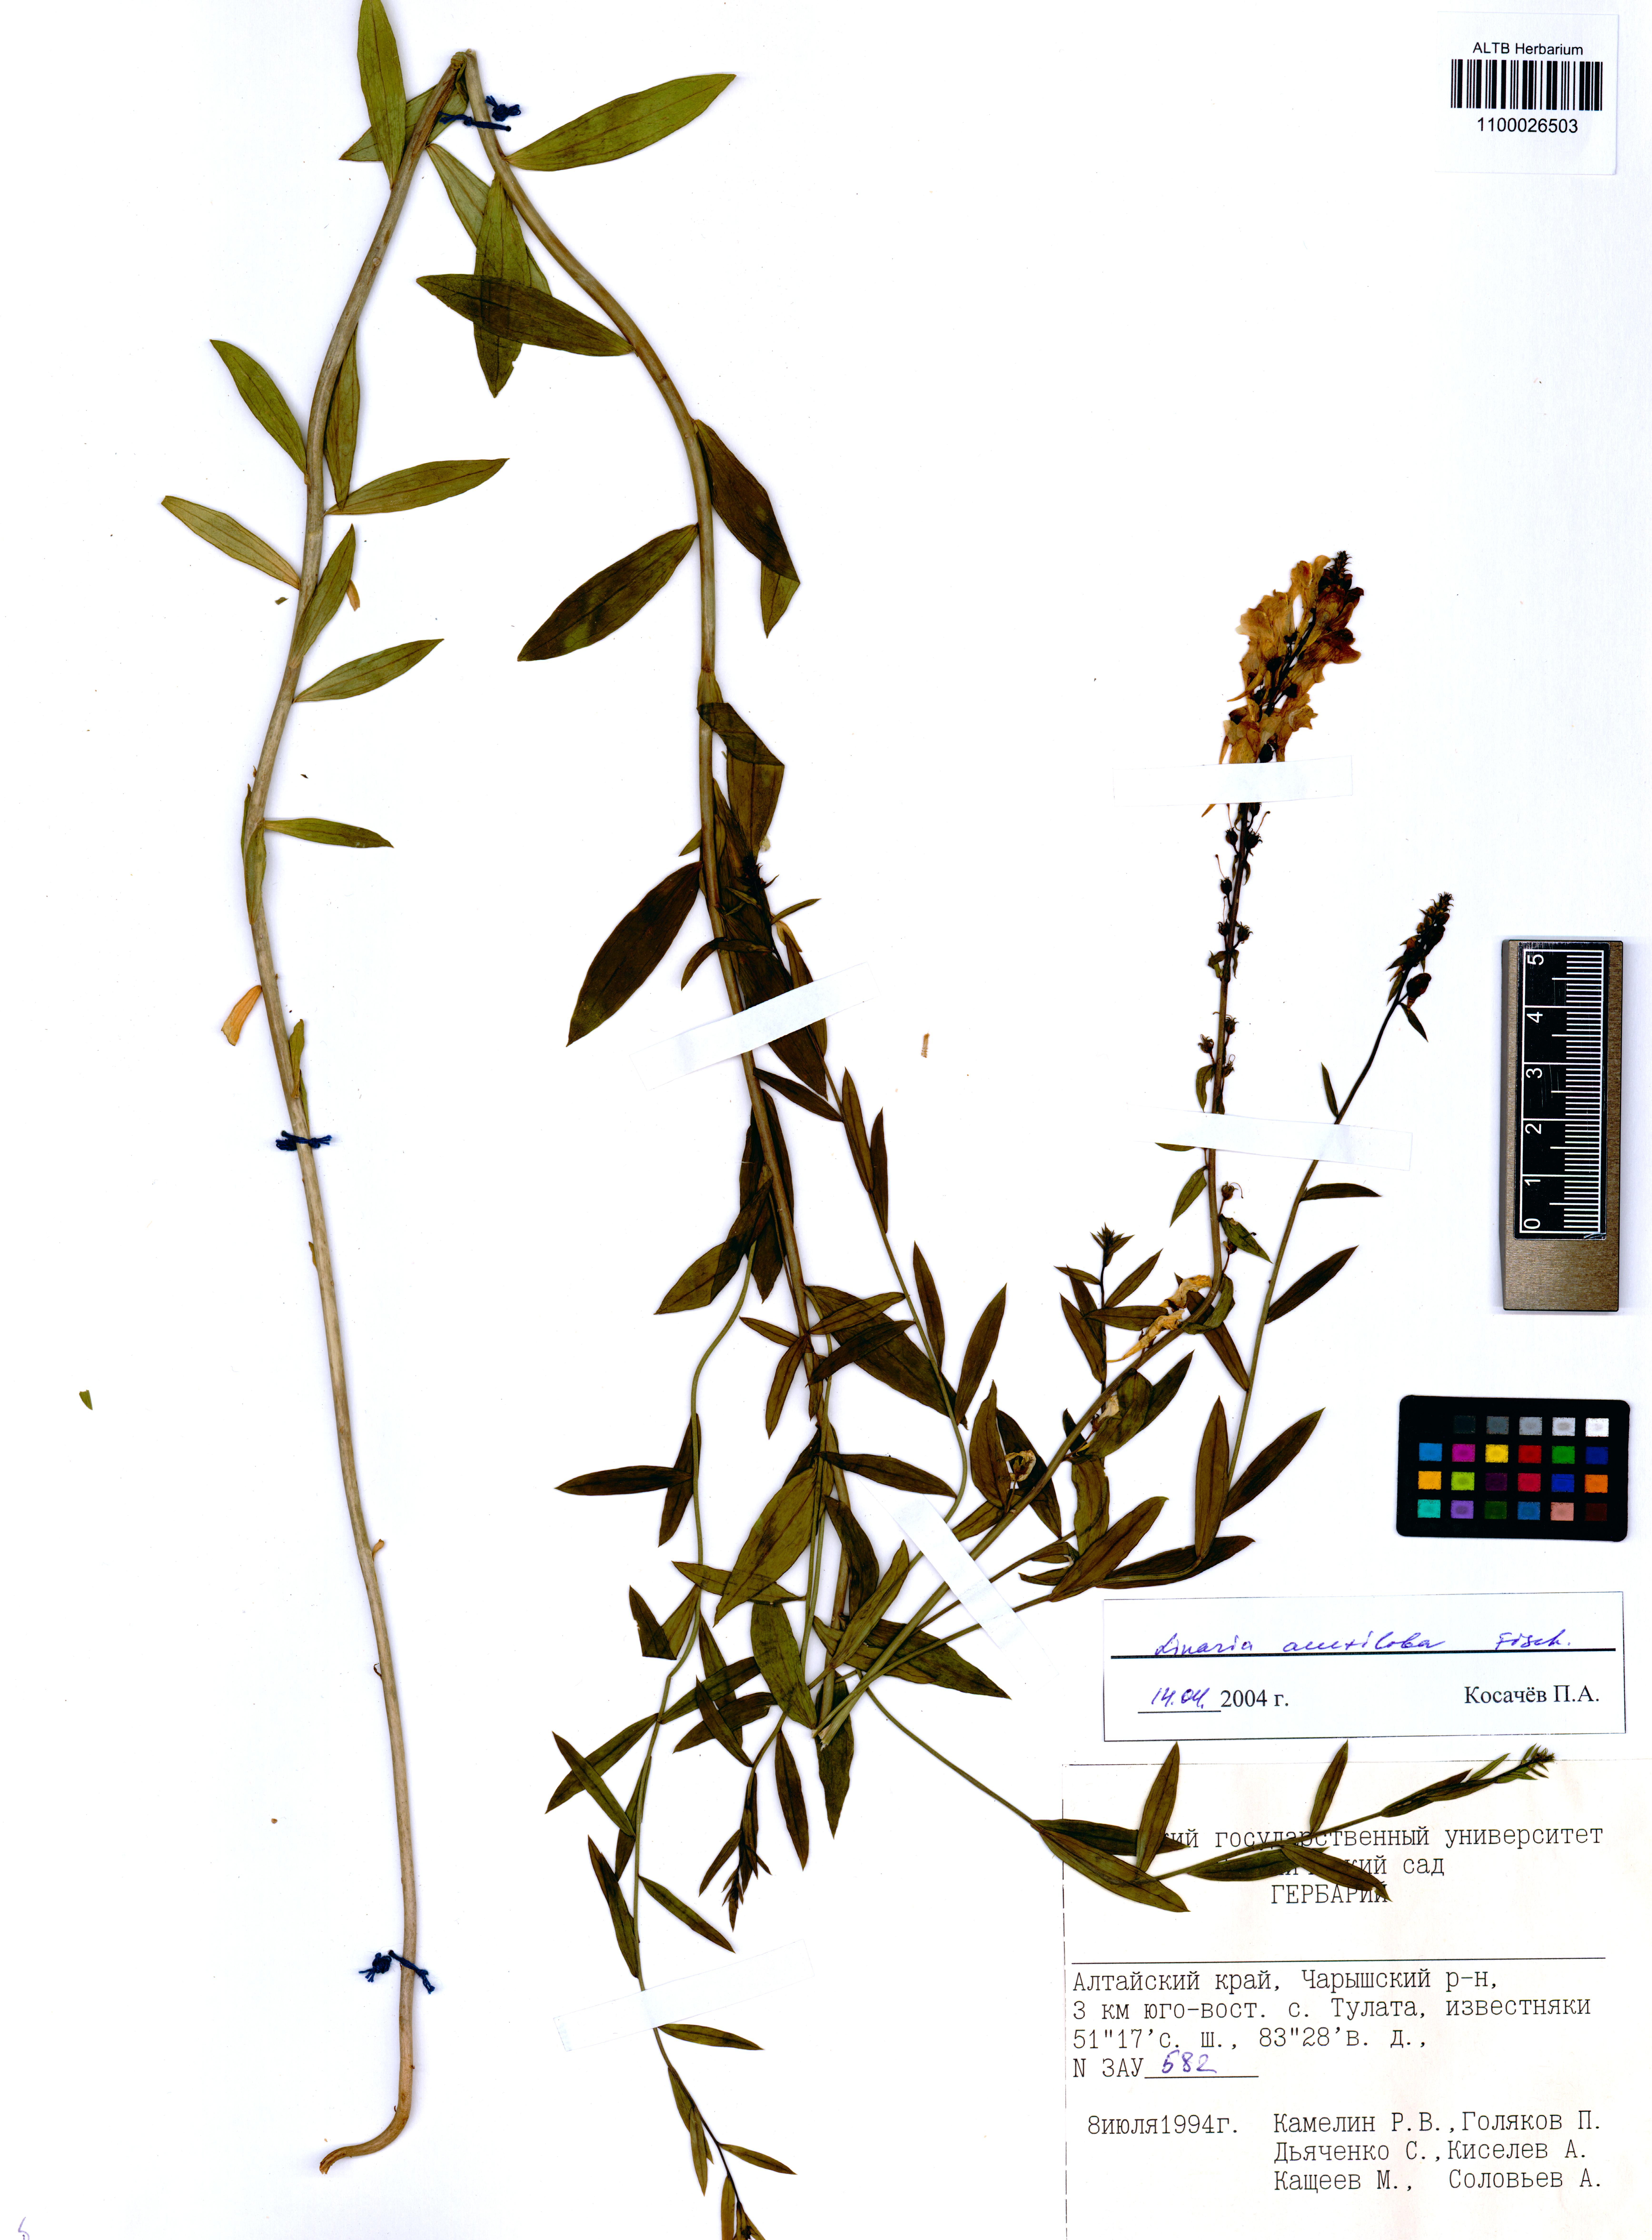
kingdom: Plantae
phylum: Tracheophyta
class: Magnoliopsida
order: Lamiales
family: Plantaginaceae
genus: Linaria
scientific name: Linaria acutiloba
